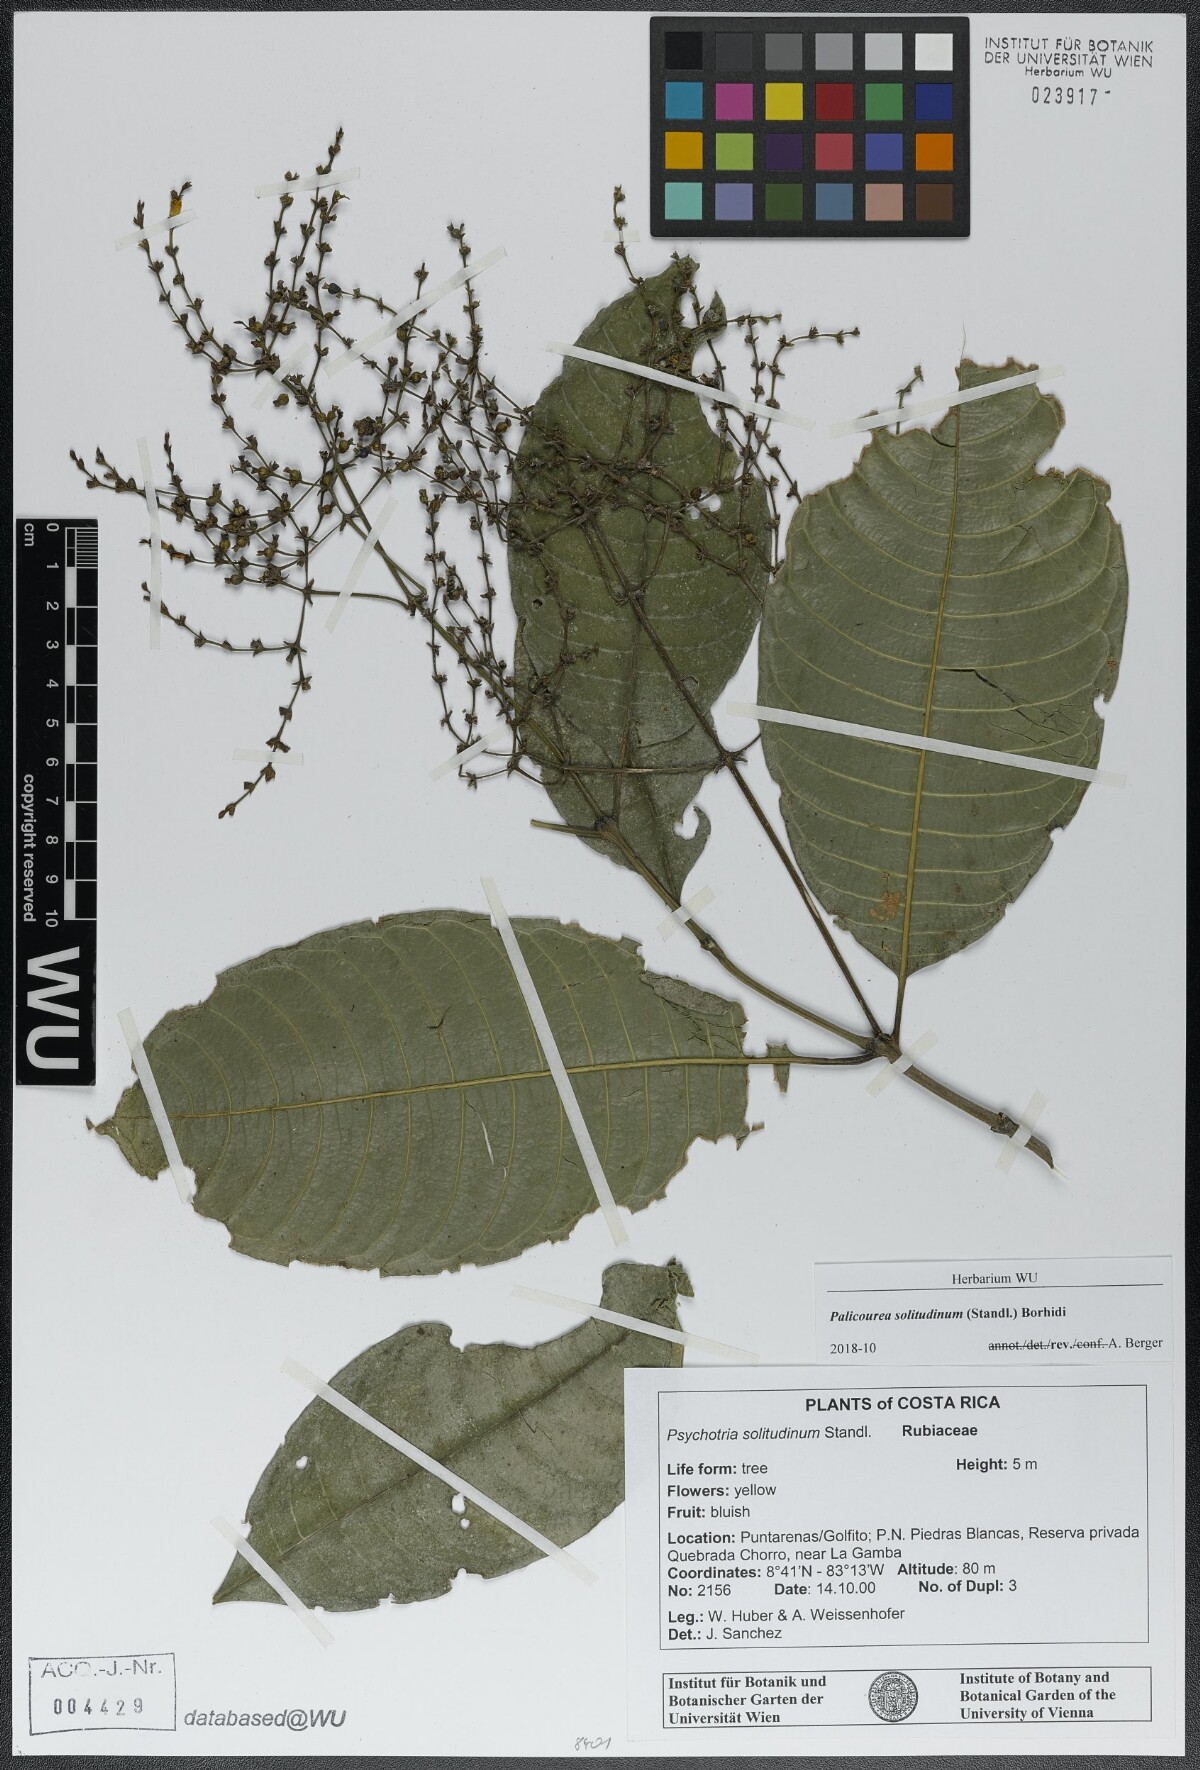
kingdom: Plantae
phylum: Tracheophyta
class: Magnoliopsida
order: Gentianales
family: Rubiaceae
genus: Palicourea
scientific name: Palicourea solitudinum
